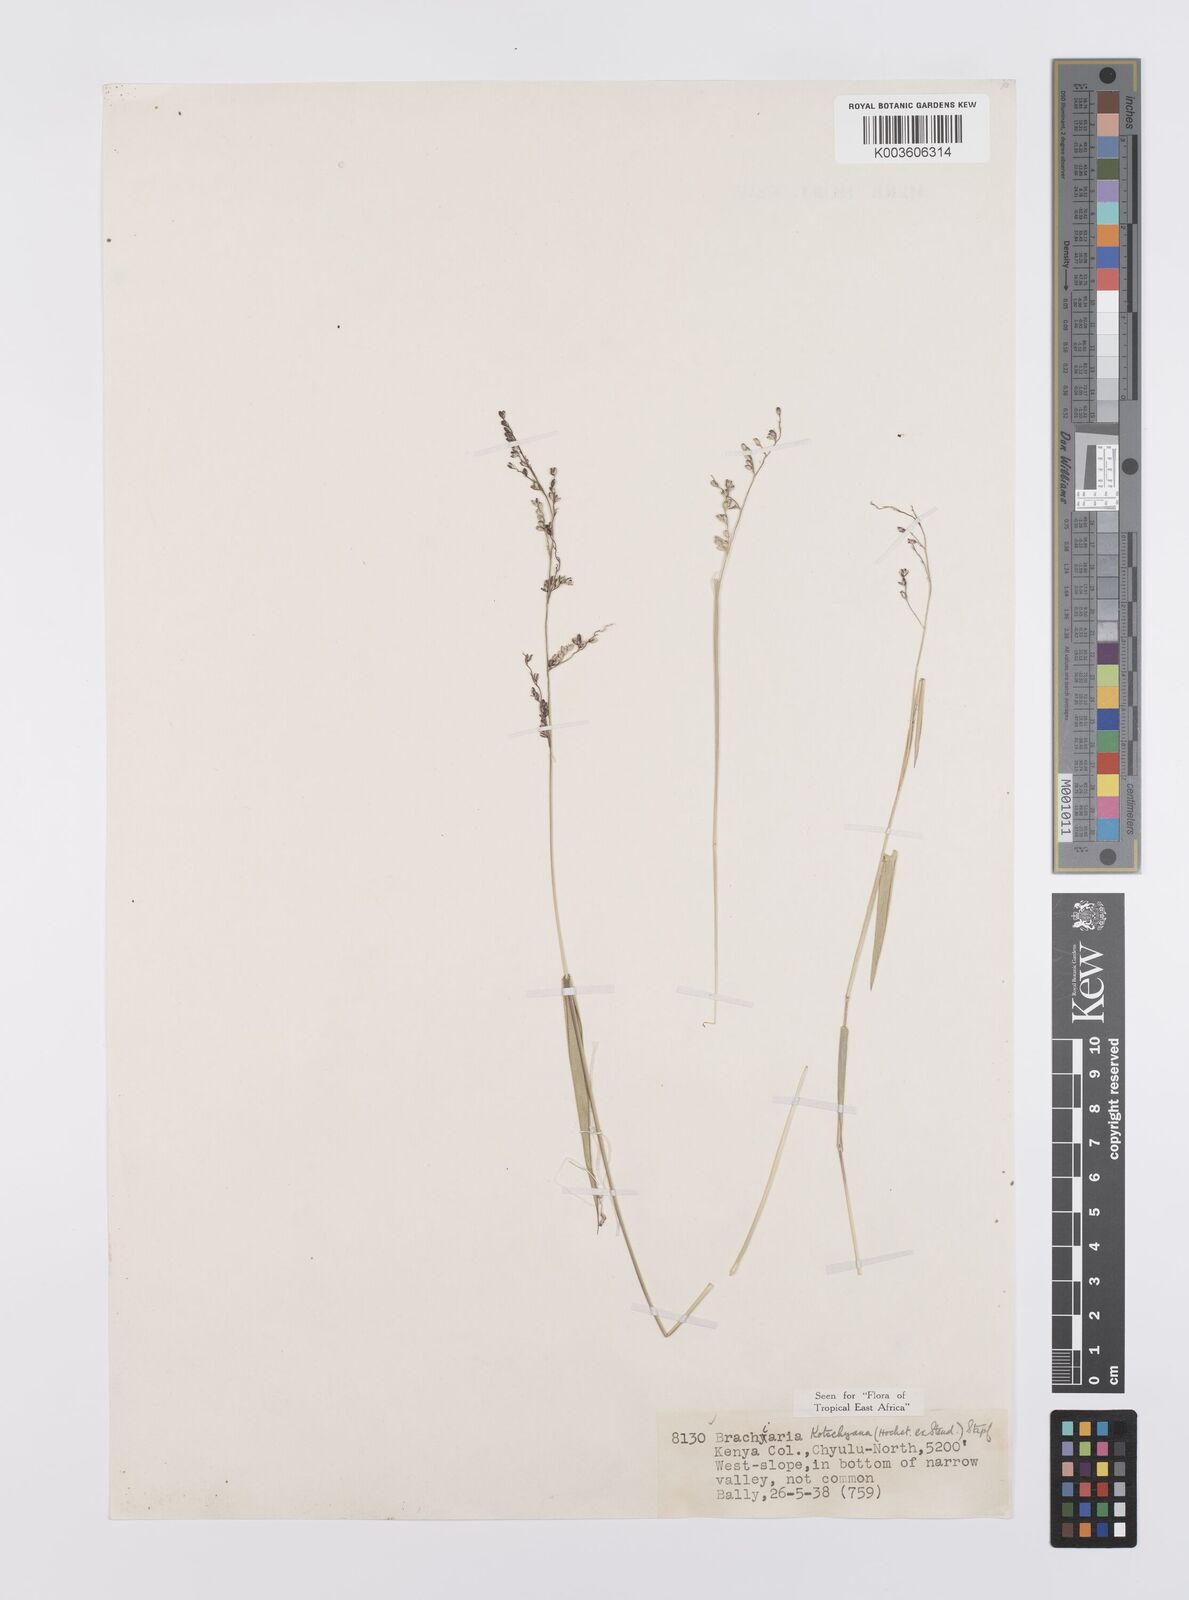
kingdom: Plantae
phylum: Tracheophyta
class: Liliopsida
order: Poales
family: Poaceae
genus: Urochloa
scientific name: Urochloa comata
